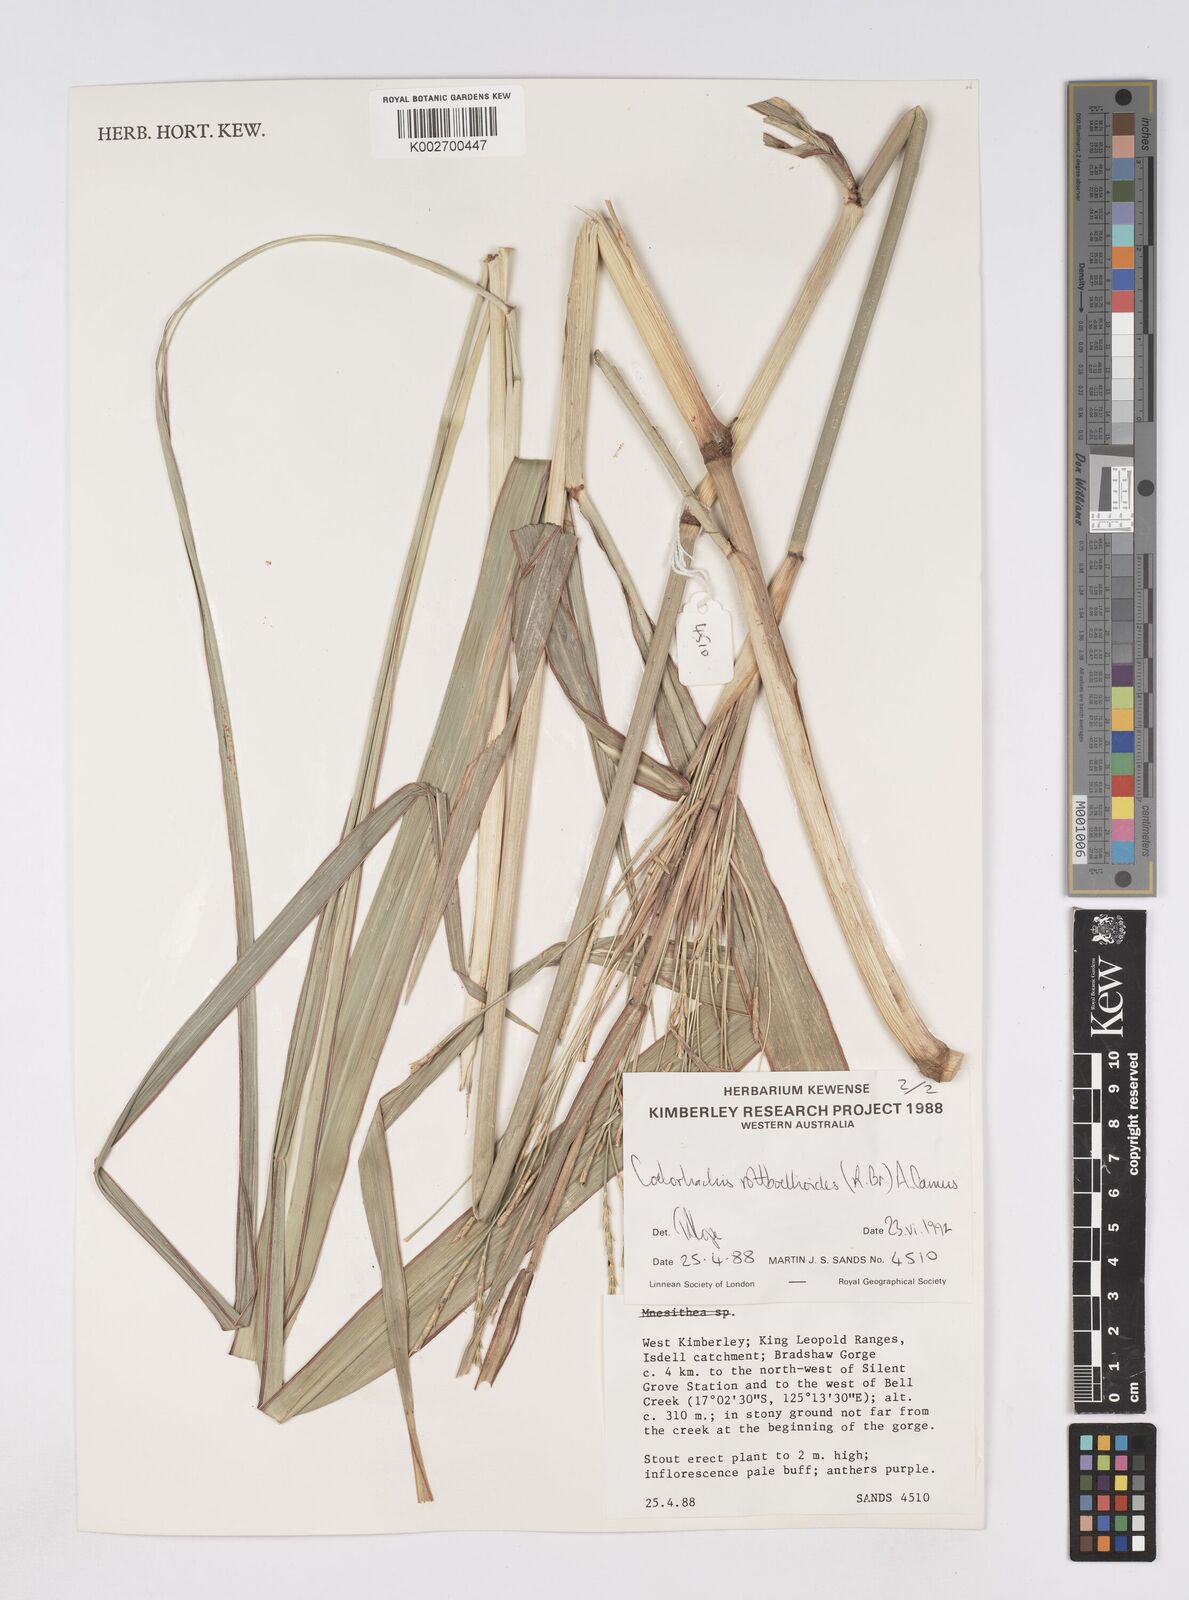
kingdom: Plantae
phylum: Tracheophyta
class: Liliopsida
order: Poales
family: Poaceae
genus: Rottboellia
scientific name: Rottboellia rottboellioides
